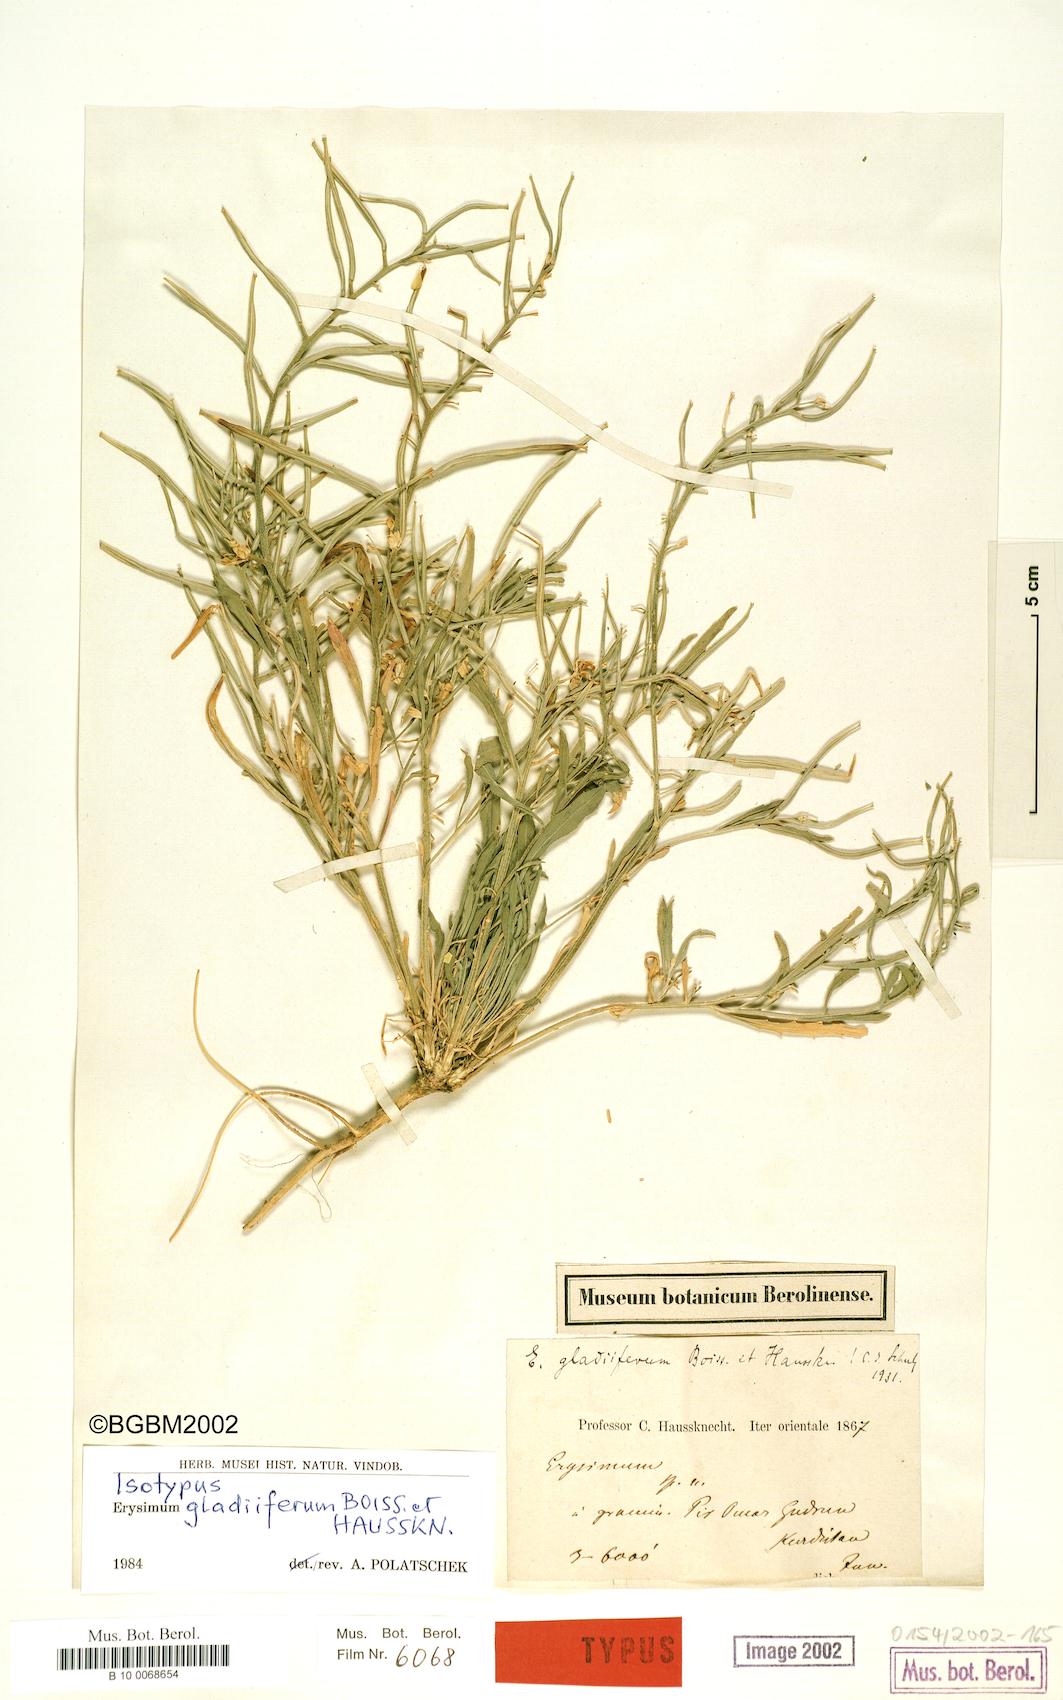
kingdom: Plantae
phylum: Tracheophyta
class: Magnoliopsida
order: Brassicales
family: Brassicaceae
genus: Erysimum
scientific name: Erysimum gladiiferum
